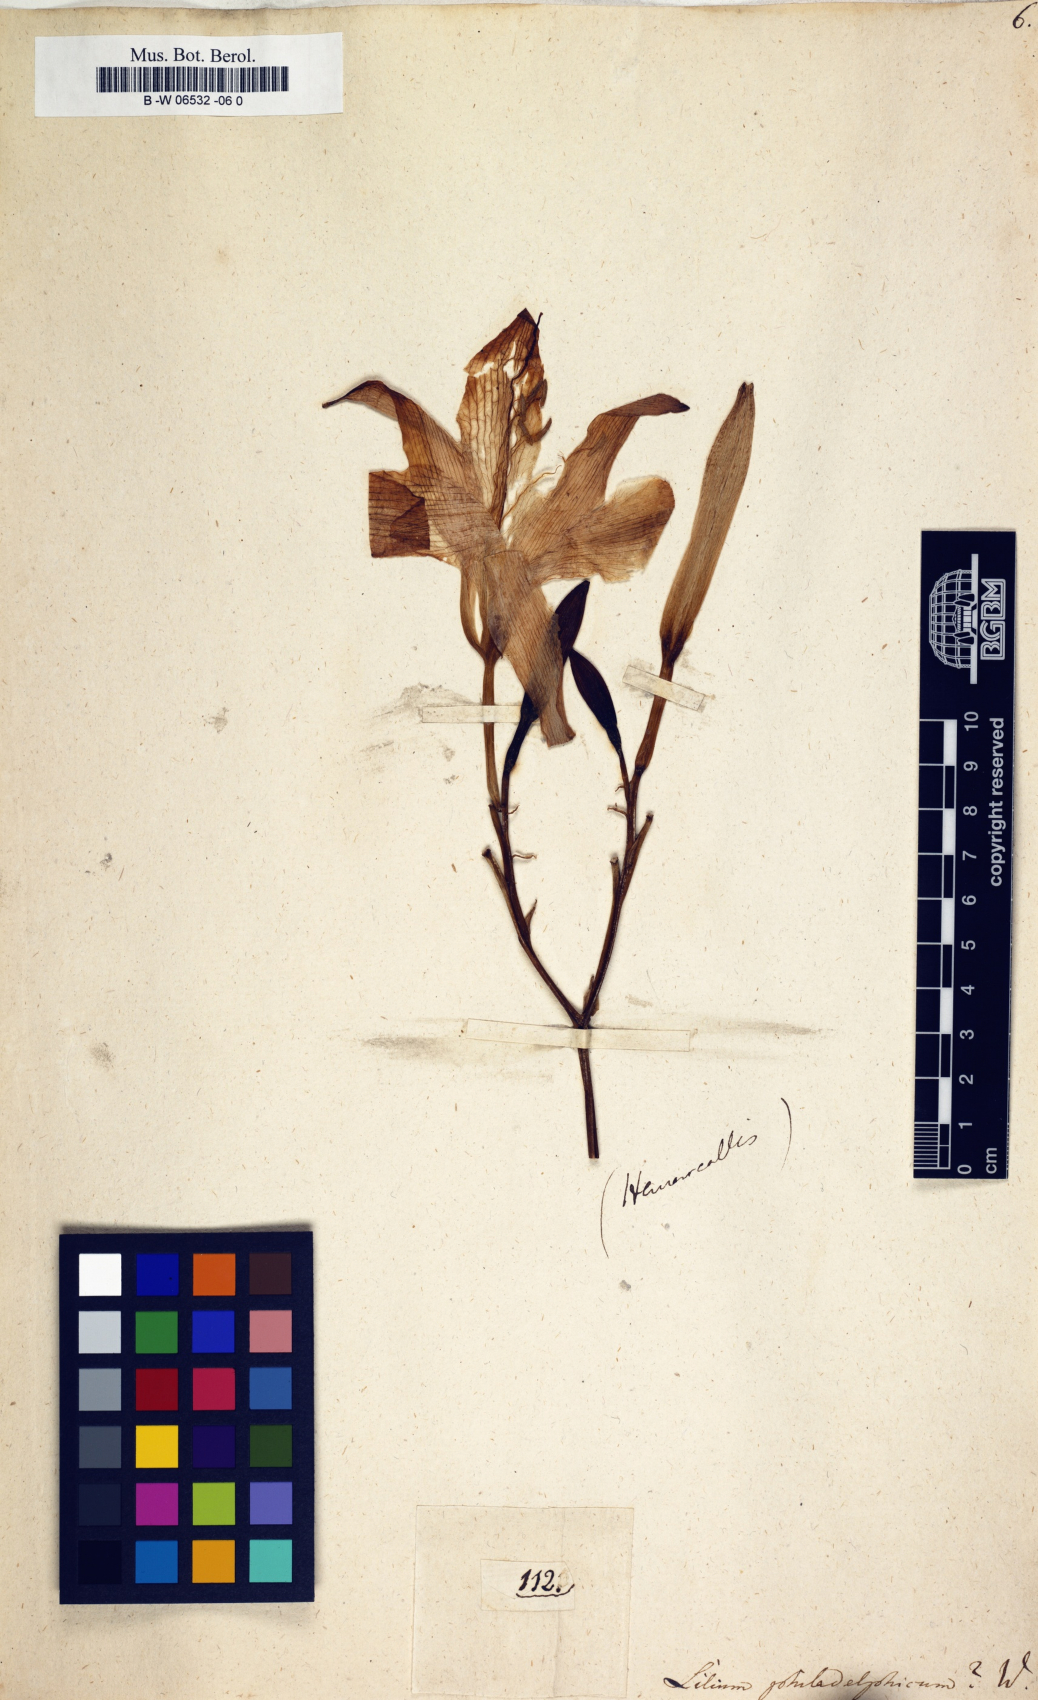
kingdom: Plantae
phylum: Tracheophyta
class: Liliopsida
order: Liliales
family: Liliaceae
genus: Lilium
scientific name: Lilium philadelphicum
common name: Red lily
